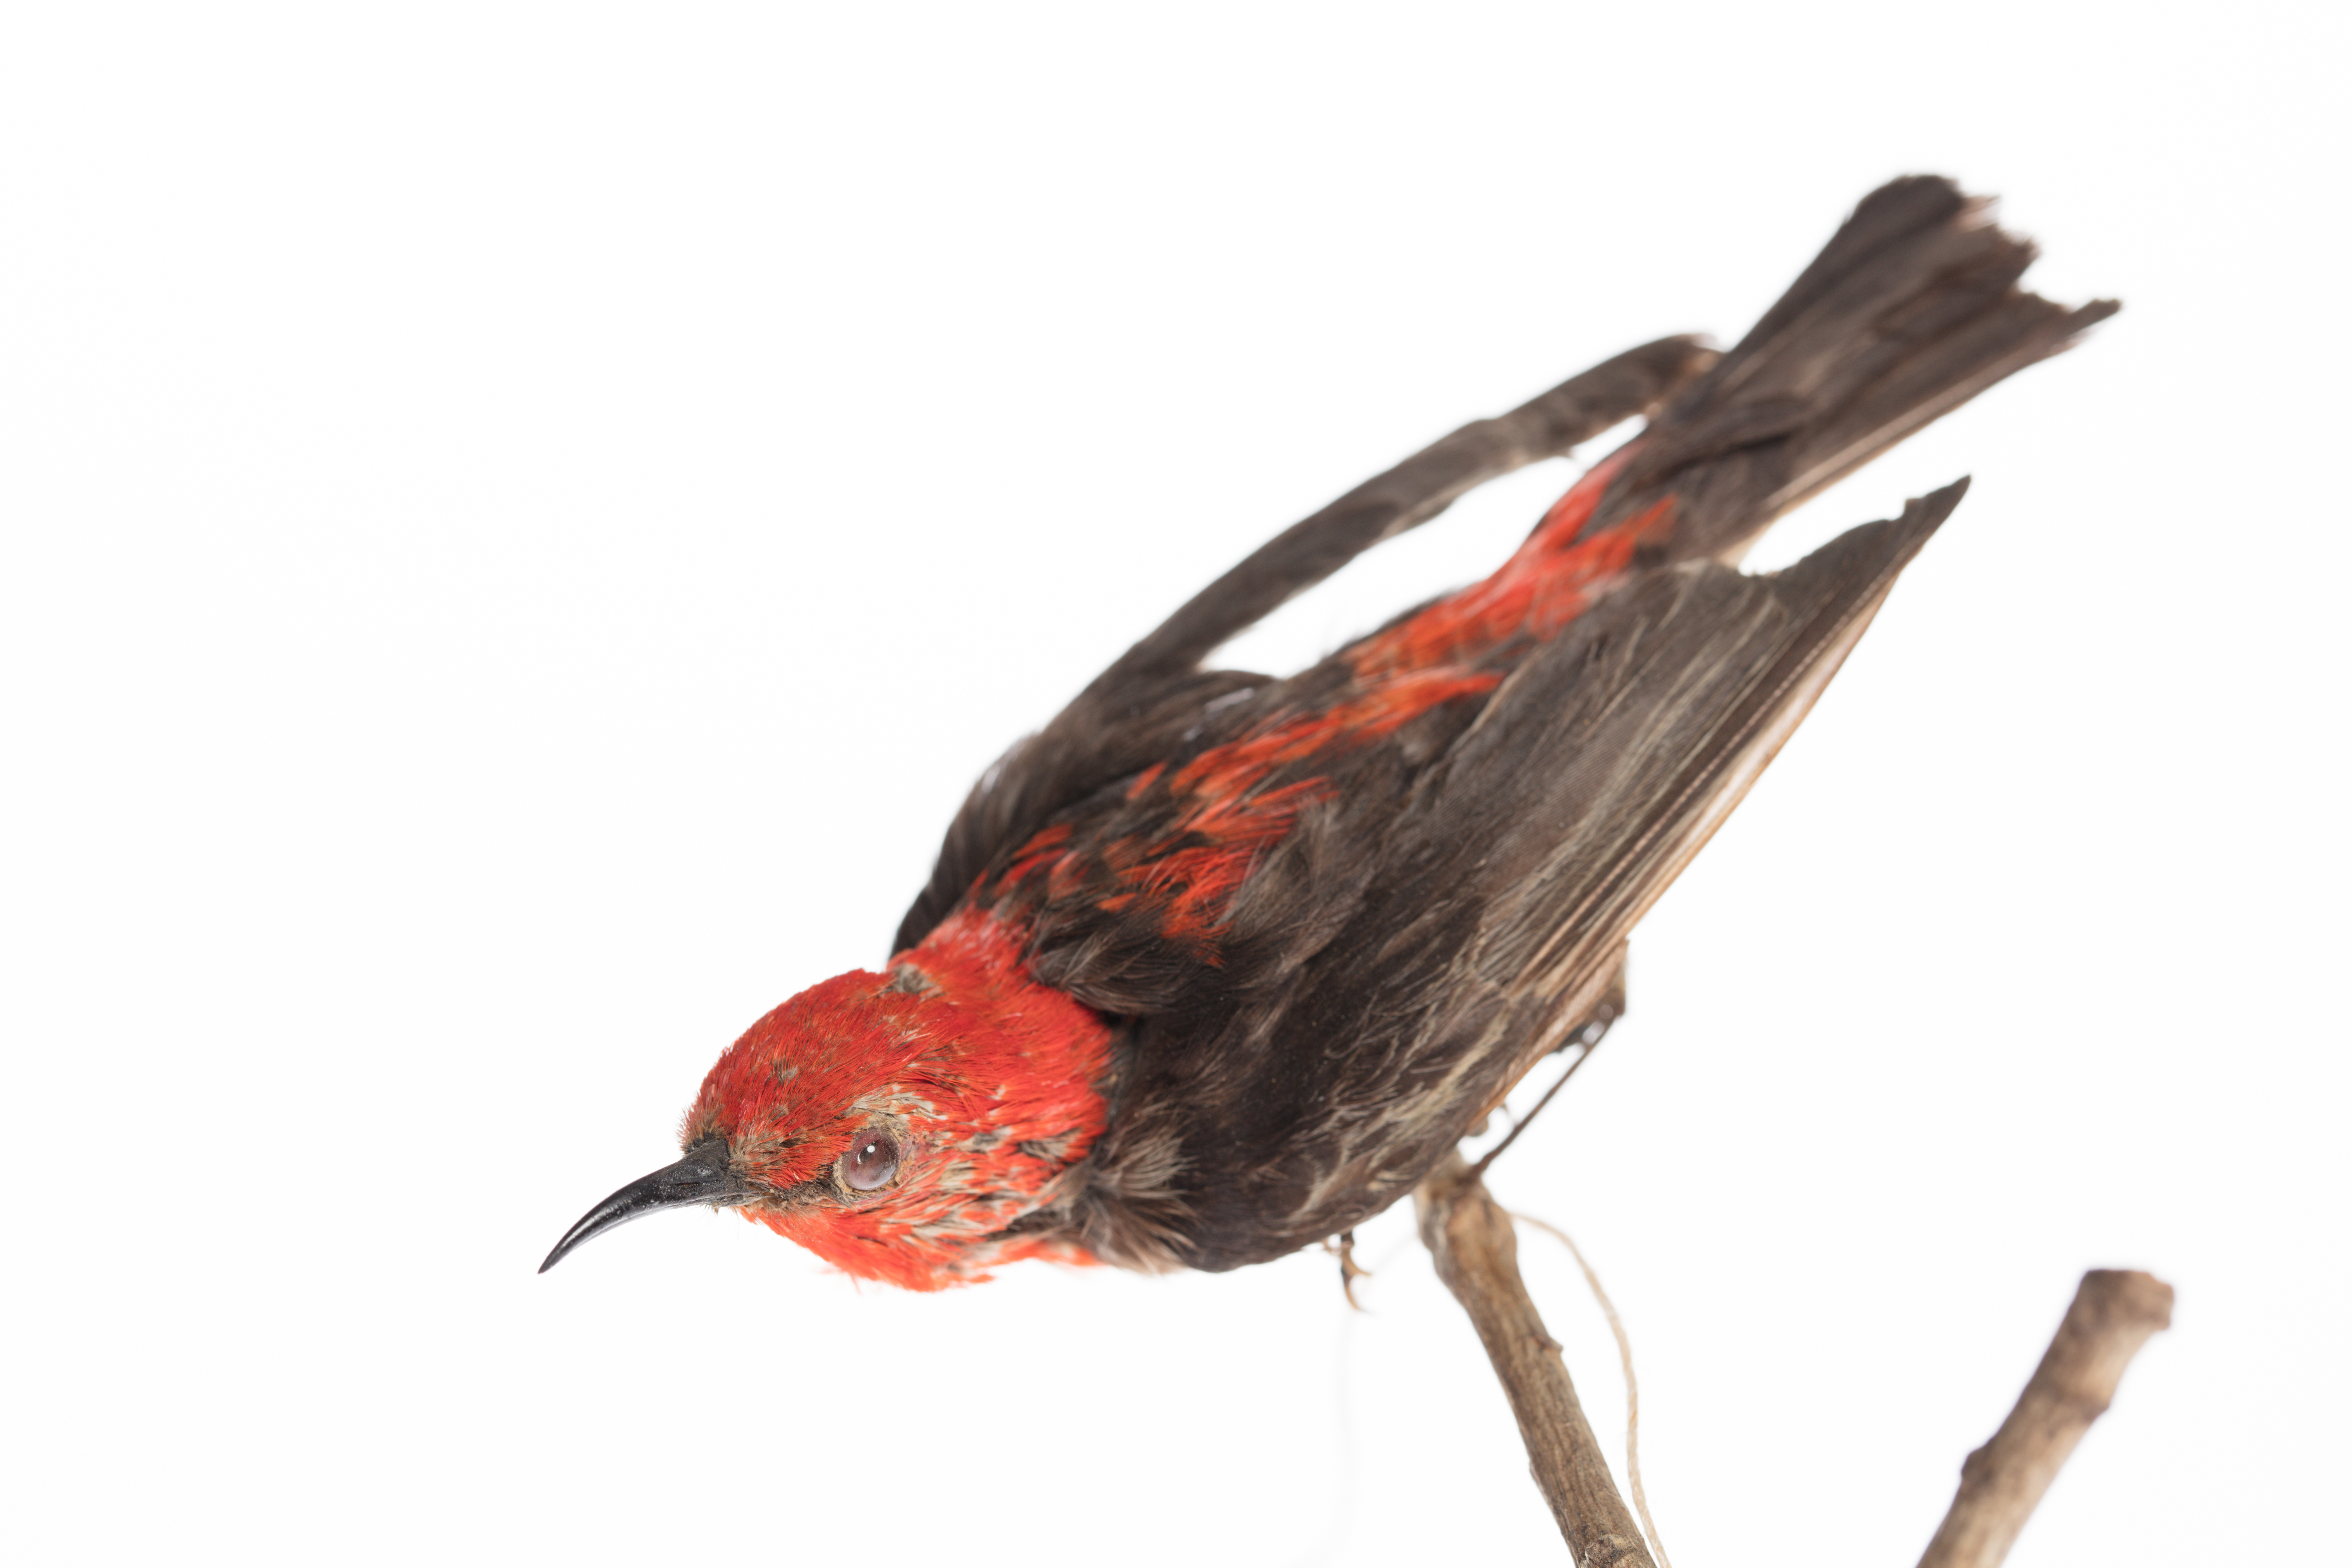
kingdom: Animalia
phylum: Chordata
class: Aves
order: Passeriformes
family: Meliphagidae
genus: Myzomela
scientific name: Myzomela sanguinolenta
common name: Scarlet myzomela
